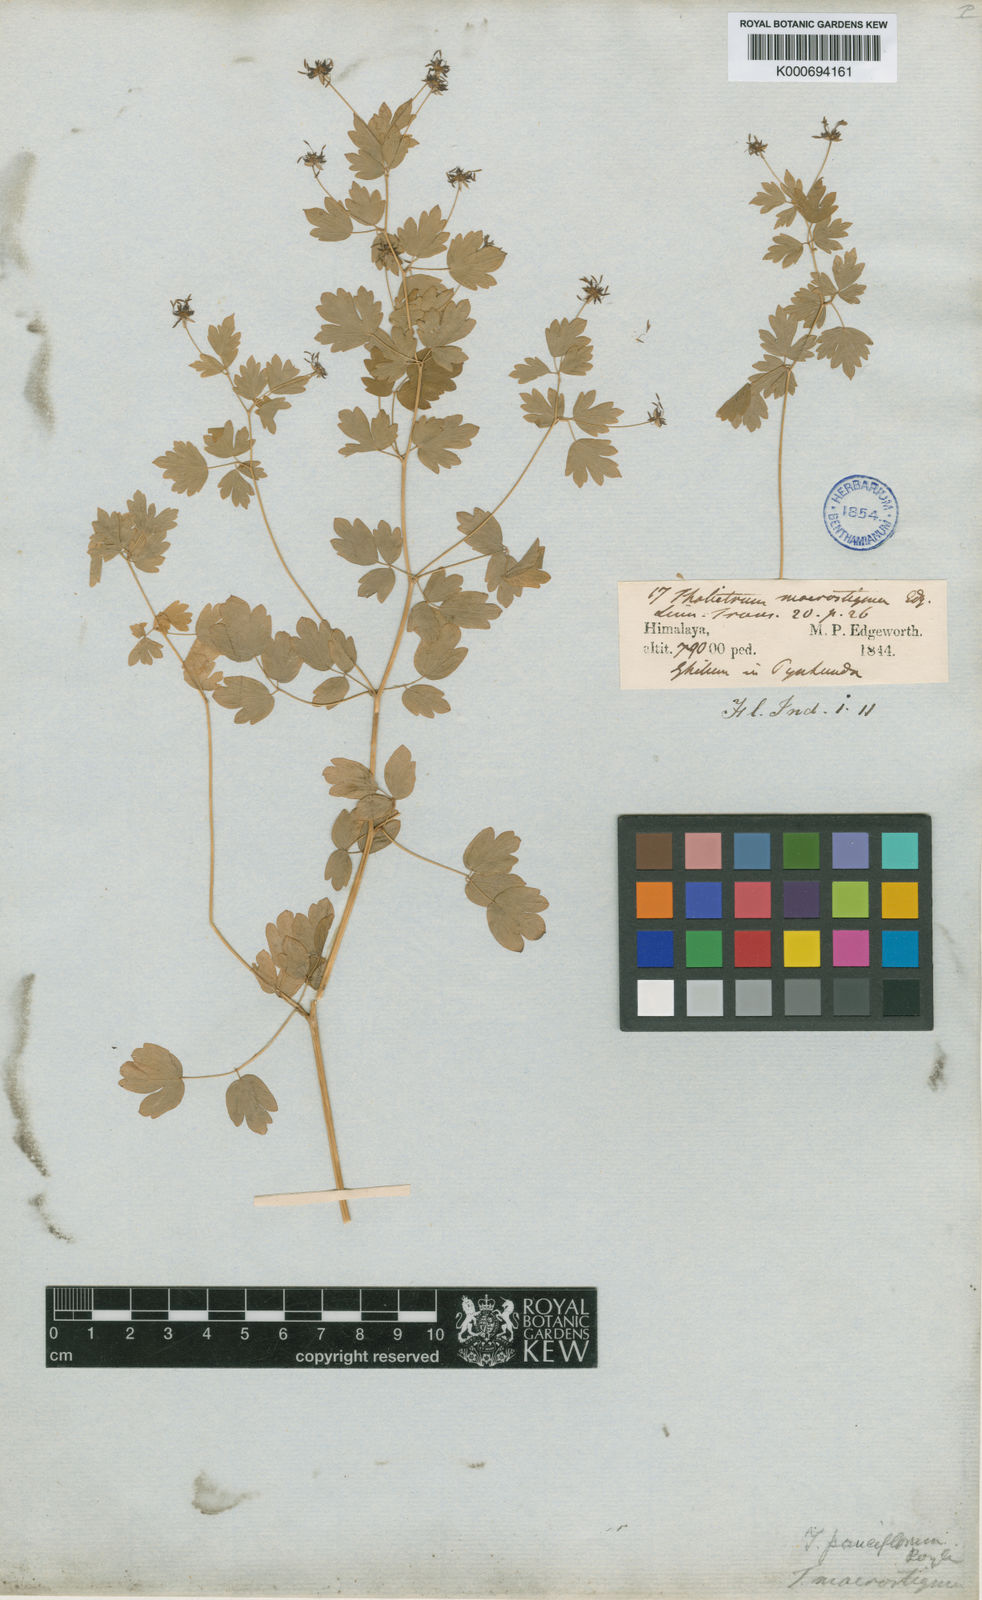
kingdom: Plantae
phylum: Tracheophyta
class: Magnoliopsida
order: Ranunculales
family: Ranunculaceae
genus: Thalictrum
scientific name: Thalictrum secundum
